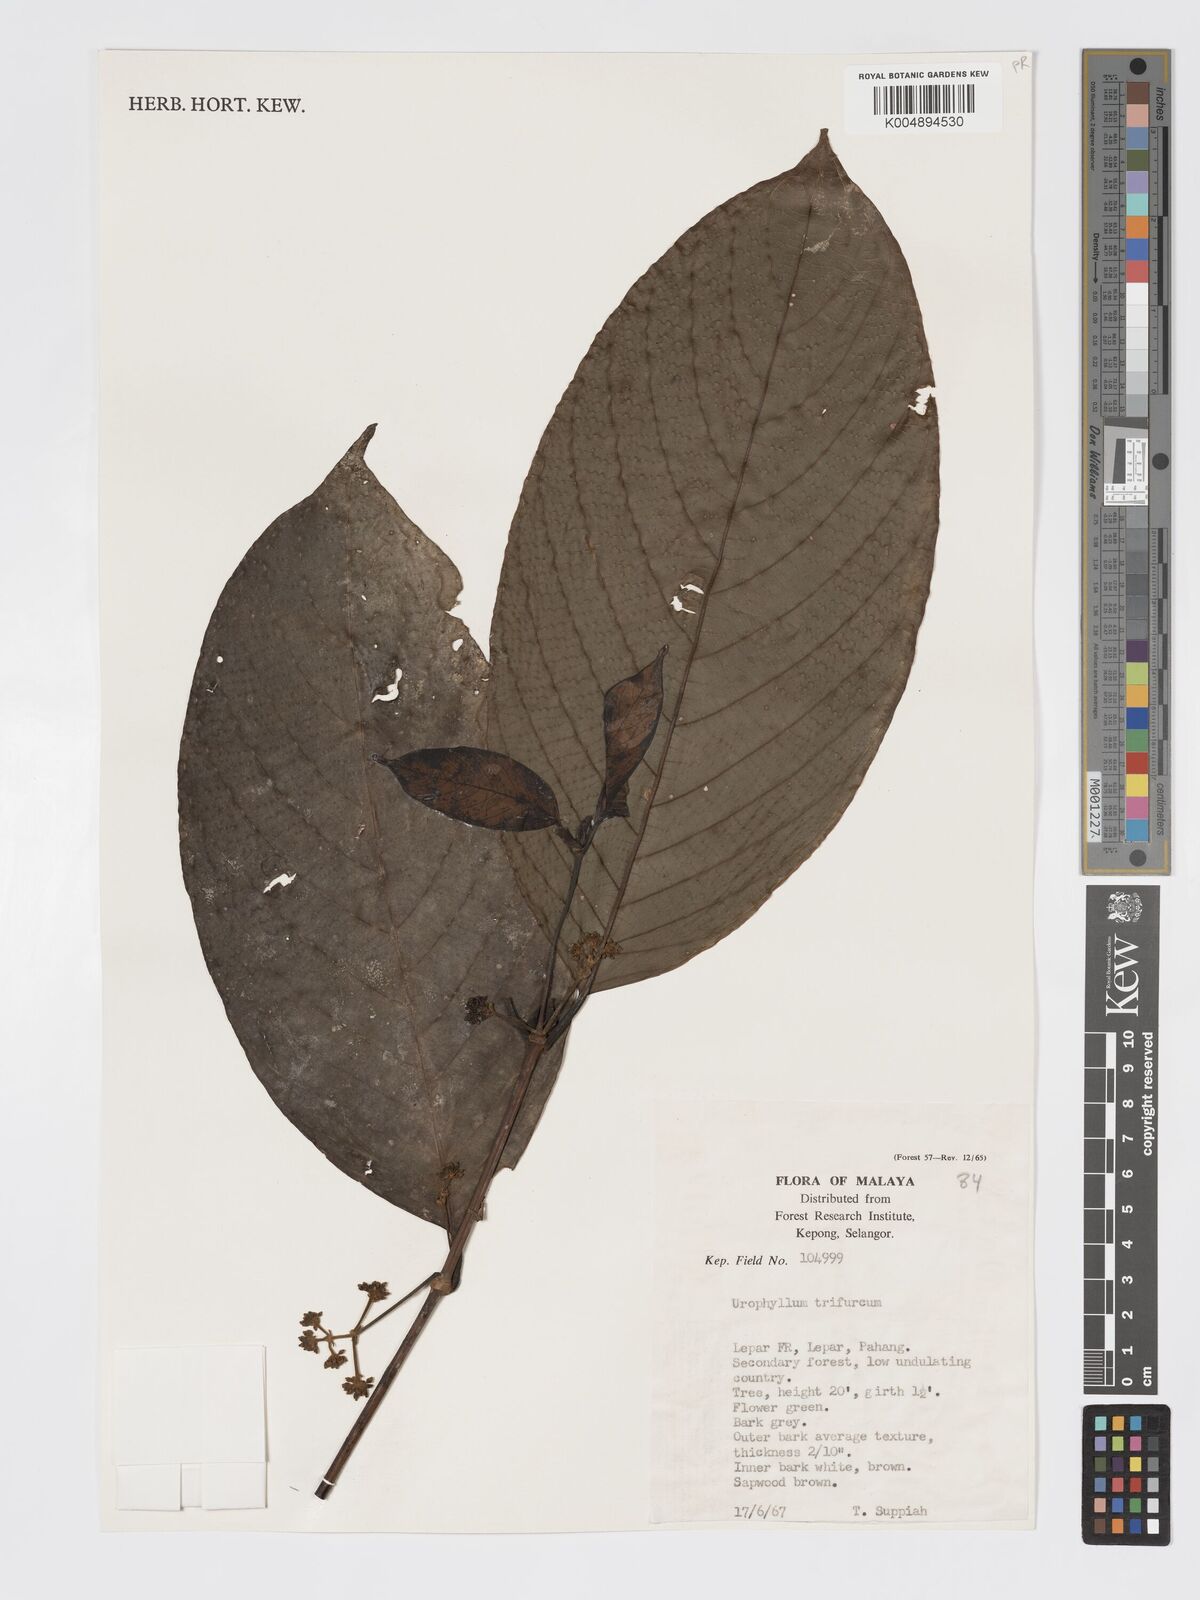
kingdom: Plantae
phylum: Tracheophyta
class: Magnoliopsida
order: Gentianales
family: Rubiaceae
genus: Urophyllum
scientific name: Urophyllum malayense
